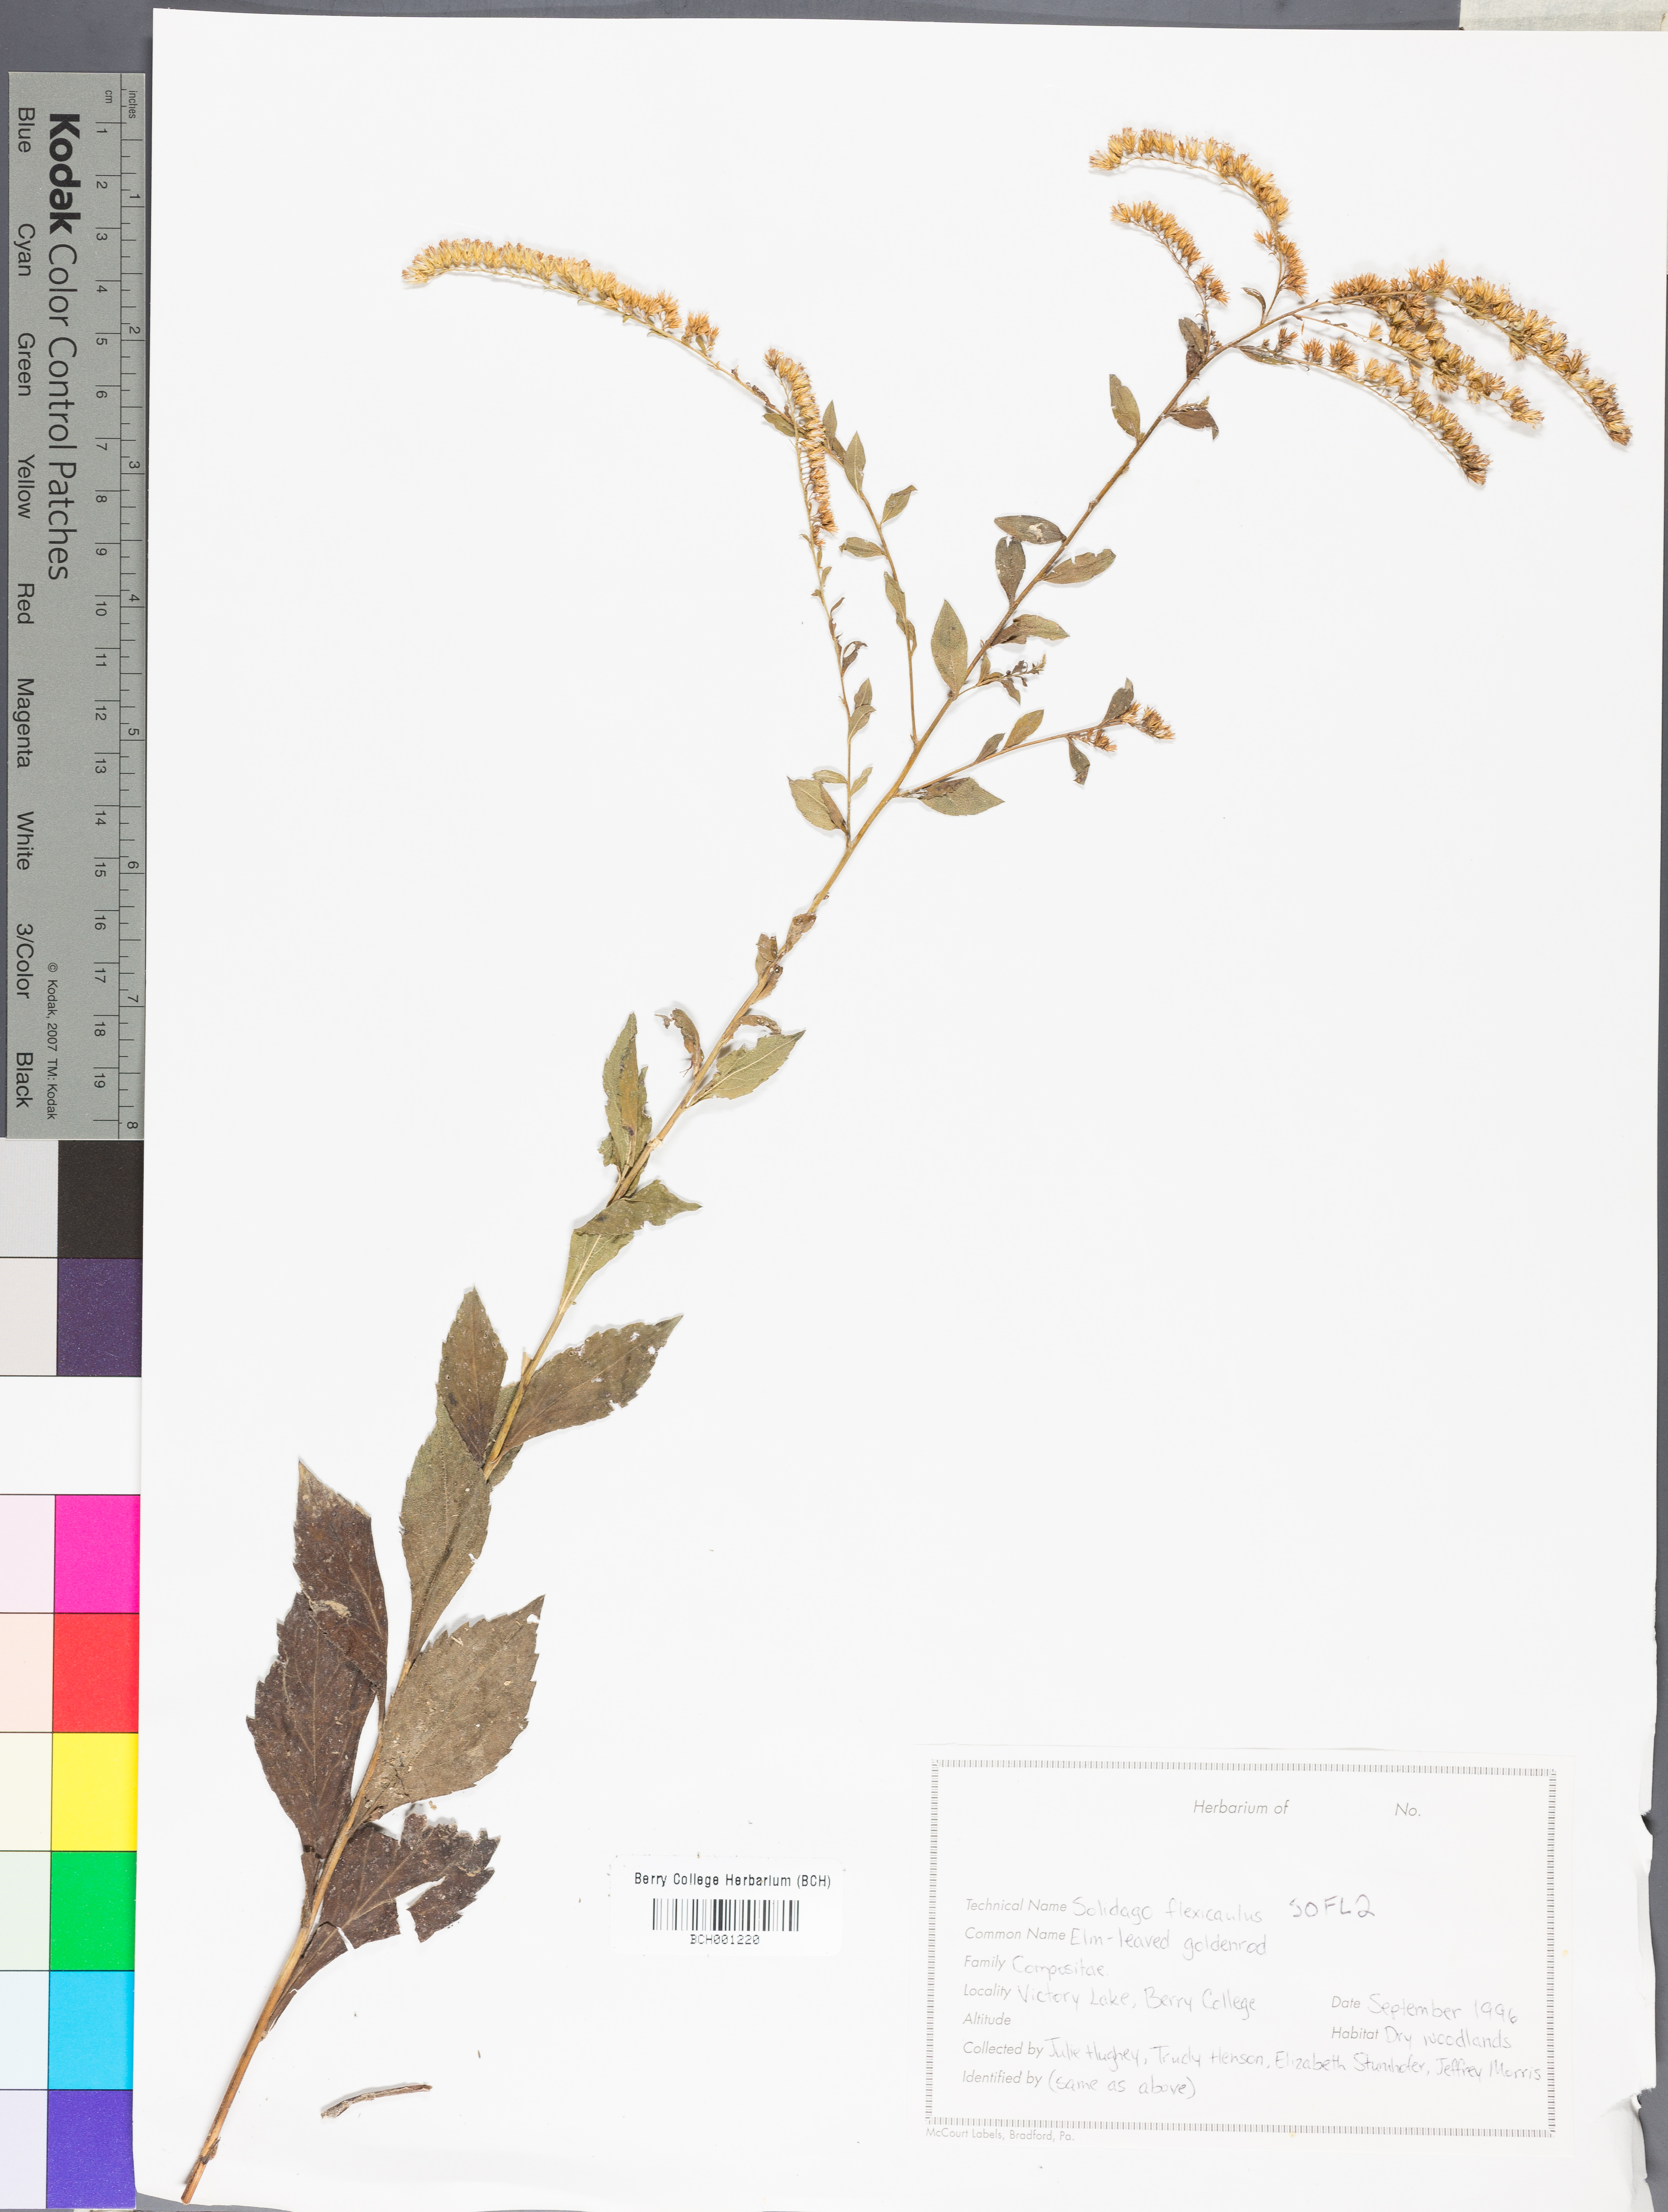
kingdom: Plantae
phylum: Tracheophyta
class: Magnoliopsida
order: Asterales
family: Asteraceae
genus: Solidago
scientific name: Solidago flexicaulis
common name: Zig-zag goldenrod
